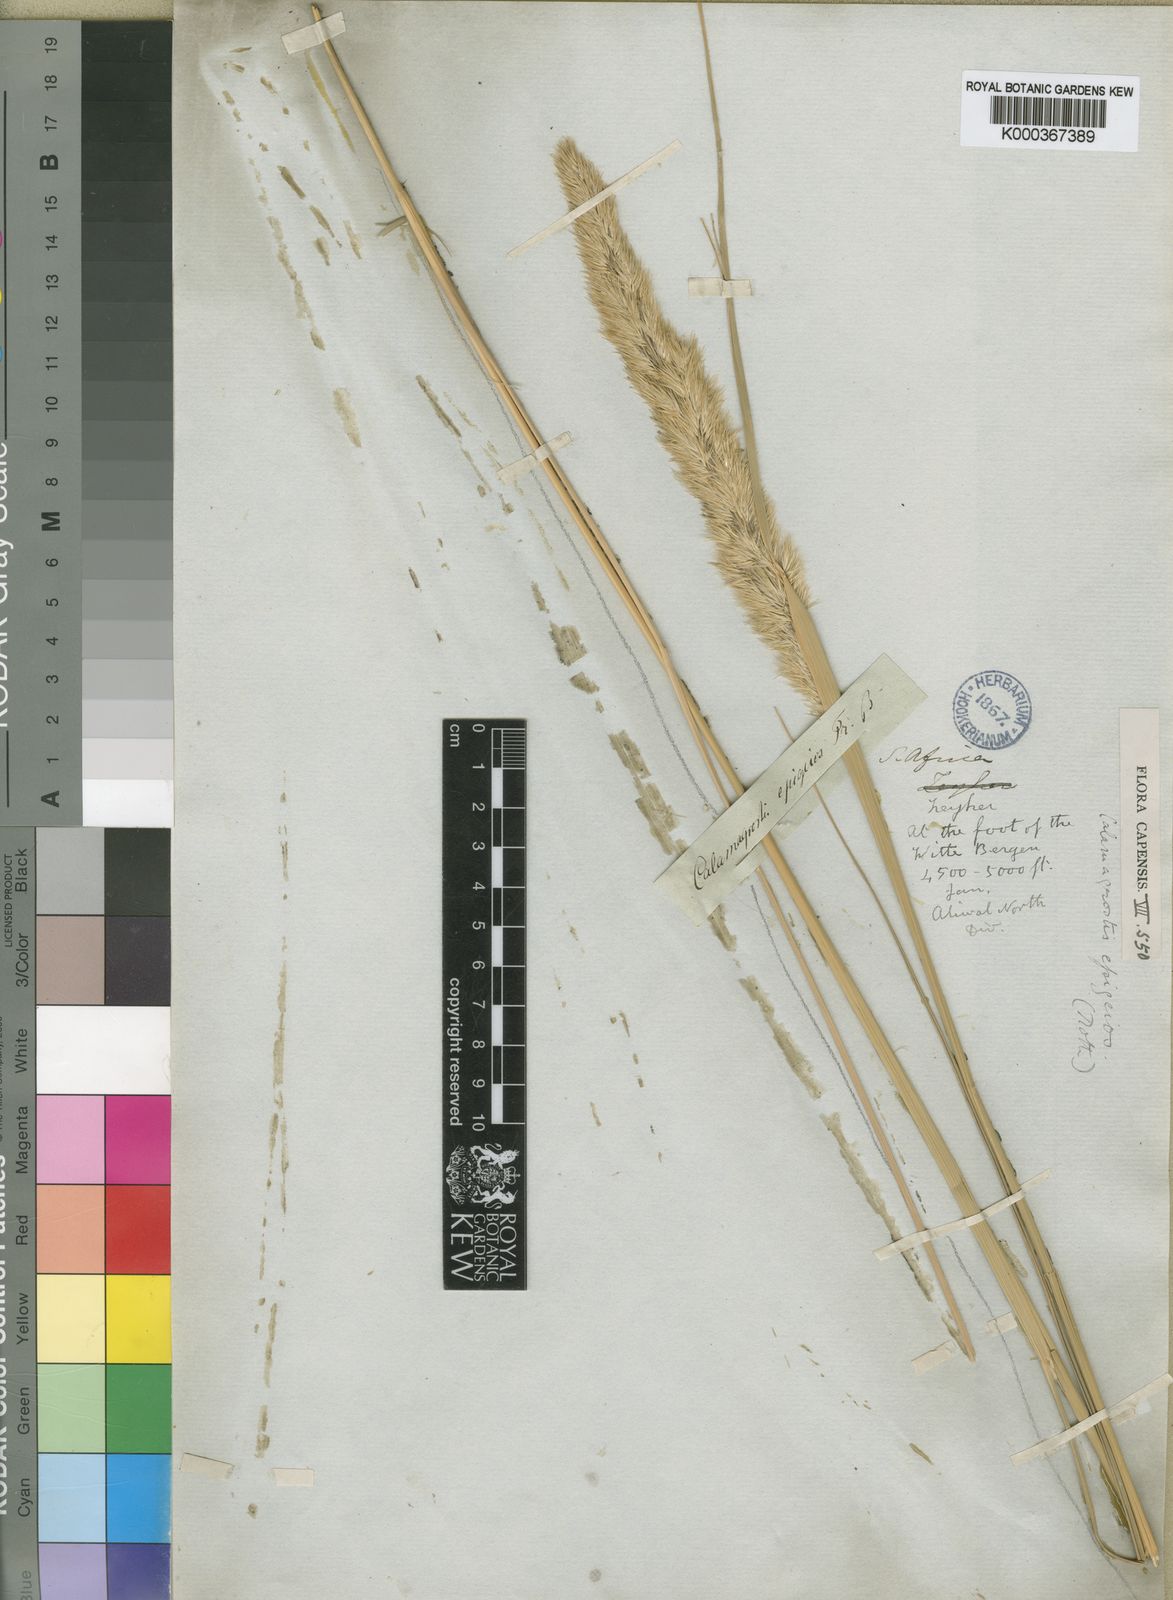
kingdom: Plantae
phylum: Tracheophyta
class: Liliopsida
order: Poales
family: Poaceae
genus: Calamagrostis
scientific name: Calamagrostis epigejos
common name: Wood small-reed
